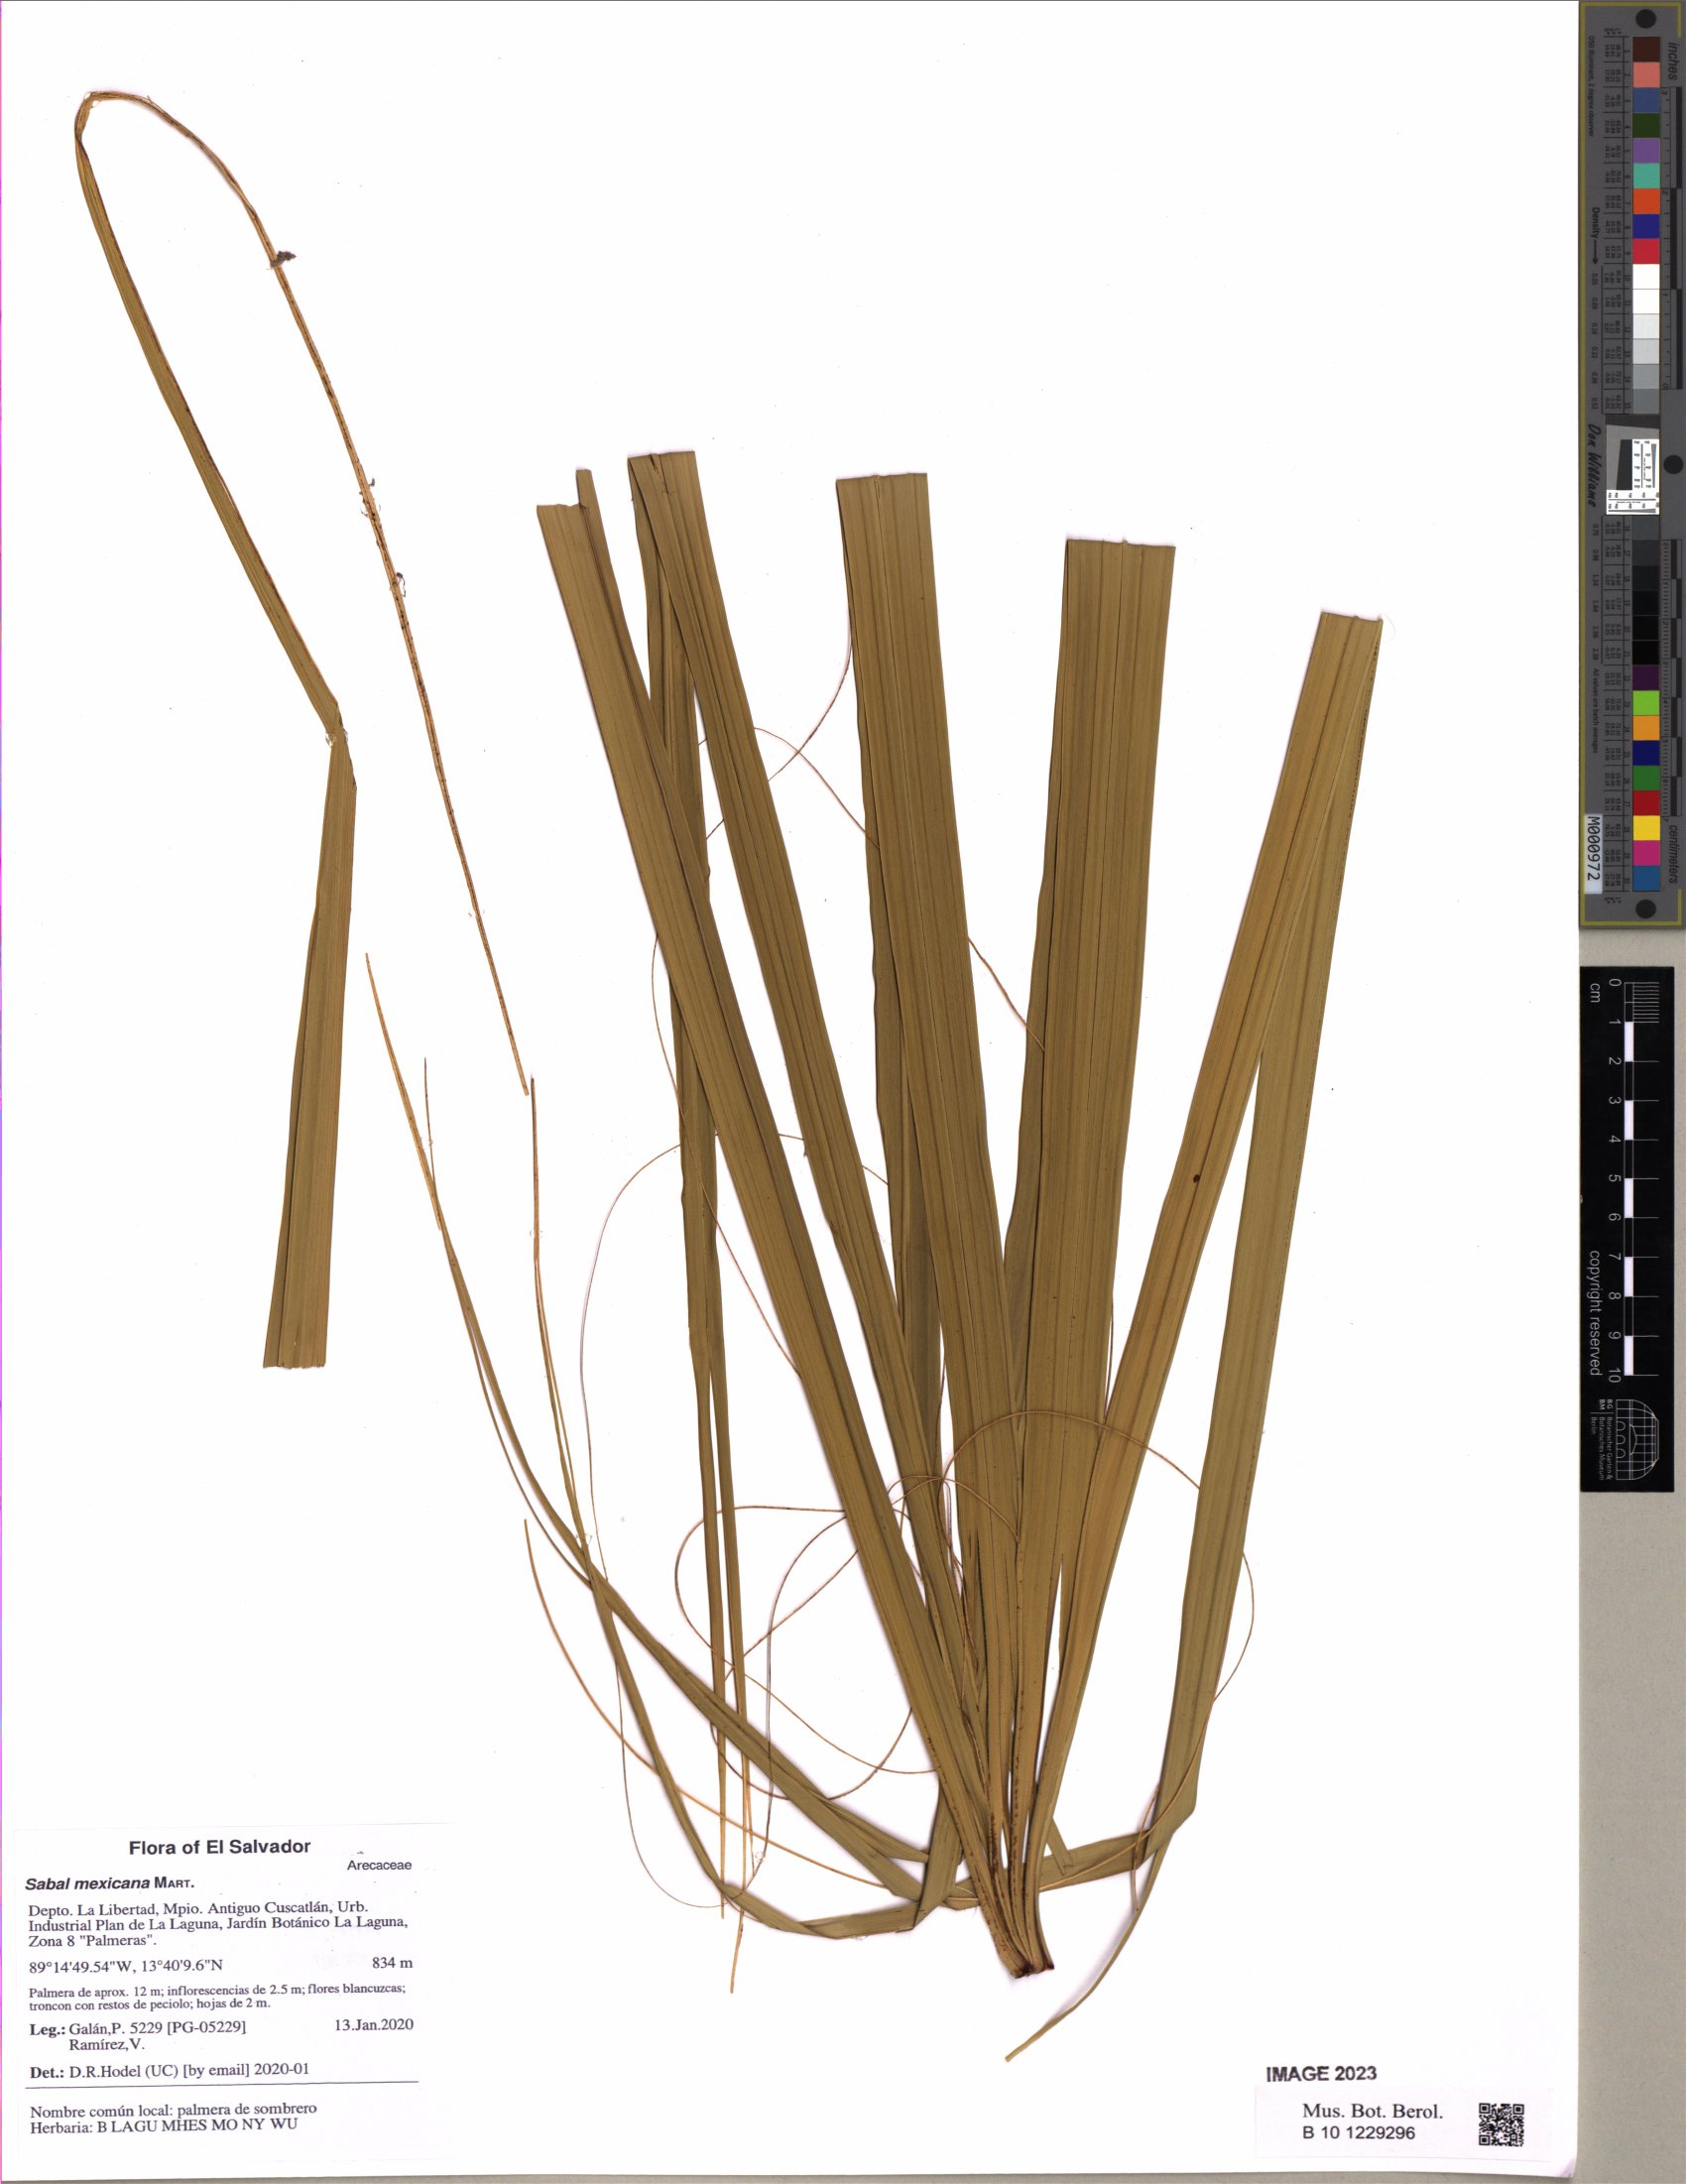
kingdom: Plantae
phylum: Tracheophyta
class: Liliopsida
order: Arecales
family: Arecaceae
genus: Sabal
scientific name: Sabal mexicana
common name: Texas palmetto
